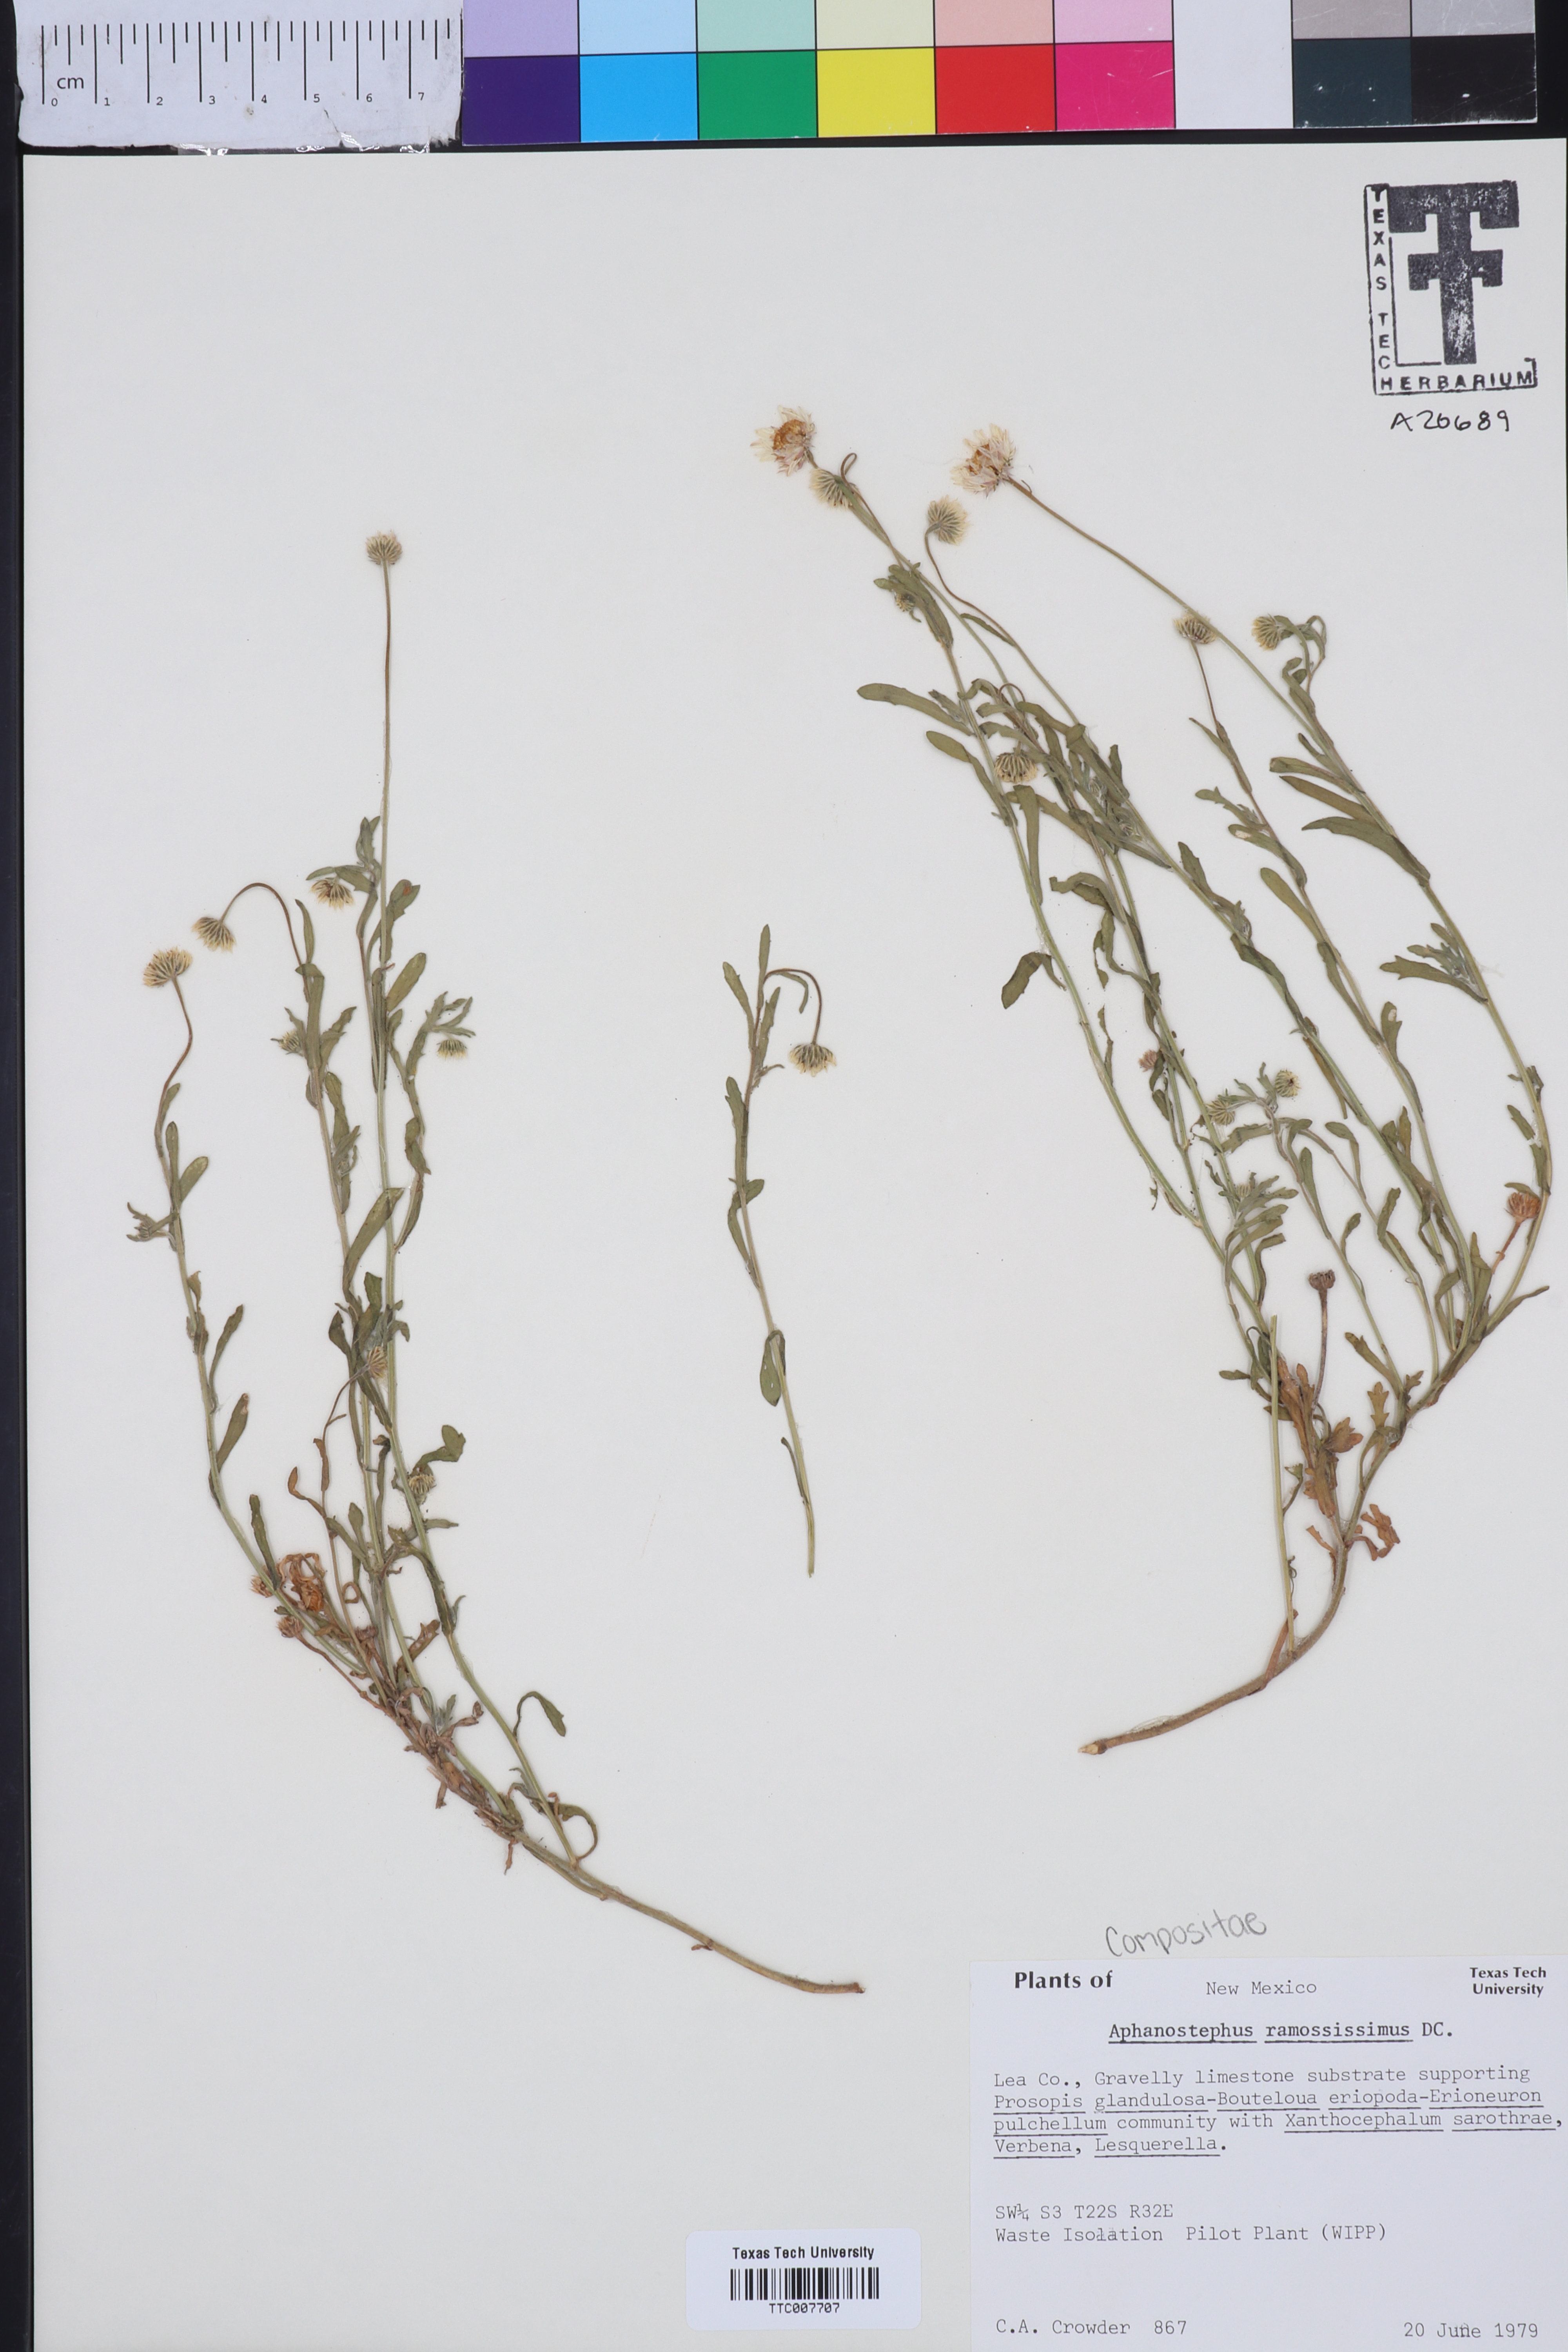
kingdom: Plantae
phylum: Tracheophyta
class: Magnoliopsida
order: Asterales
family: Asteraceae
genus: Aphanostephus
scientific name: Aphanostephus ramosissimus
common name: Plains lazy daisy
